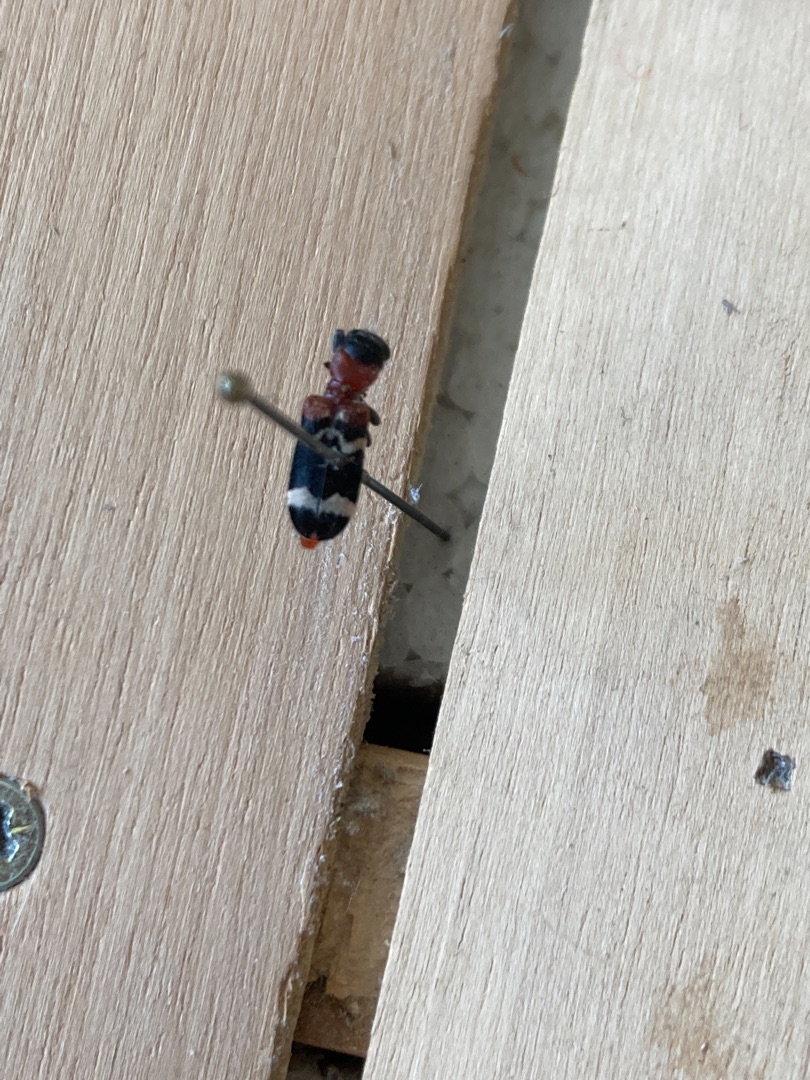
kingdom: Animalia
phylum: Arthropoda
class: Insecta
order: Coleoptera
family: Cleridae
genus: Thanasimus
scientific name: Thanasimus formicarius
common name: Myrebille
